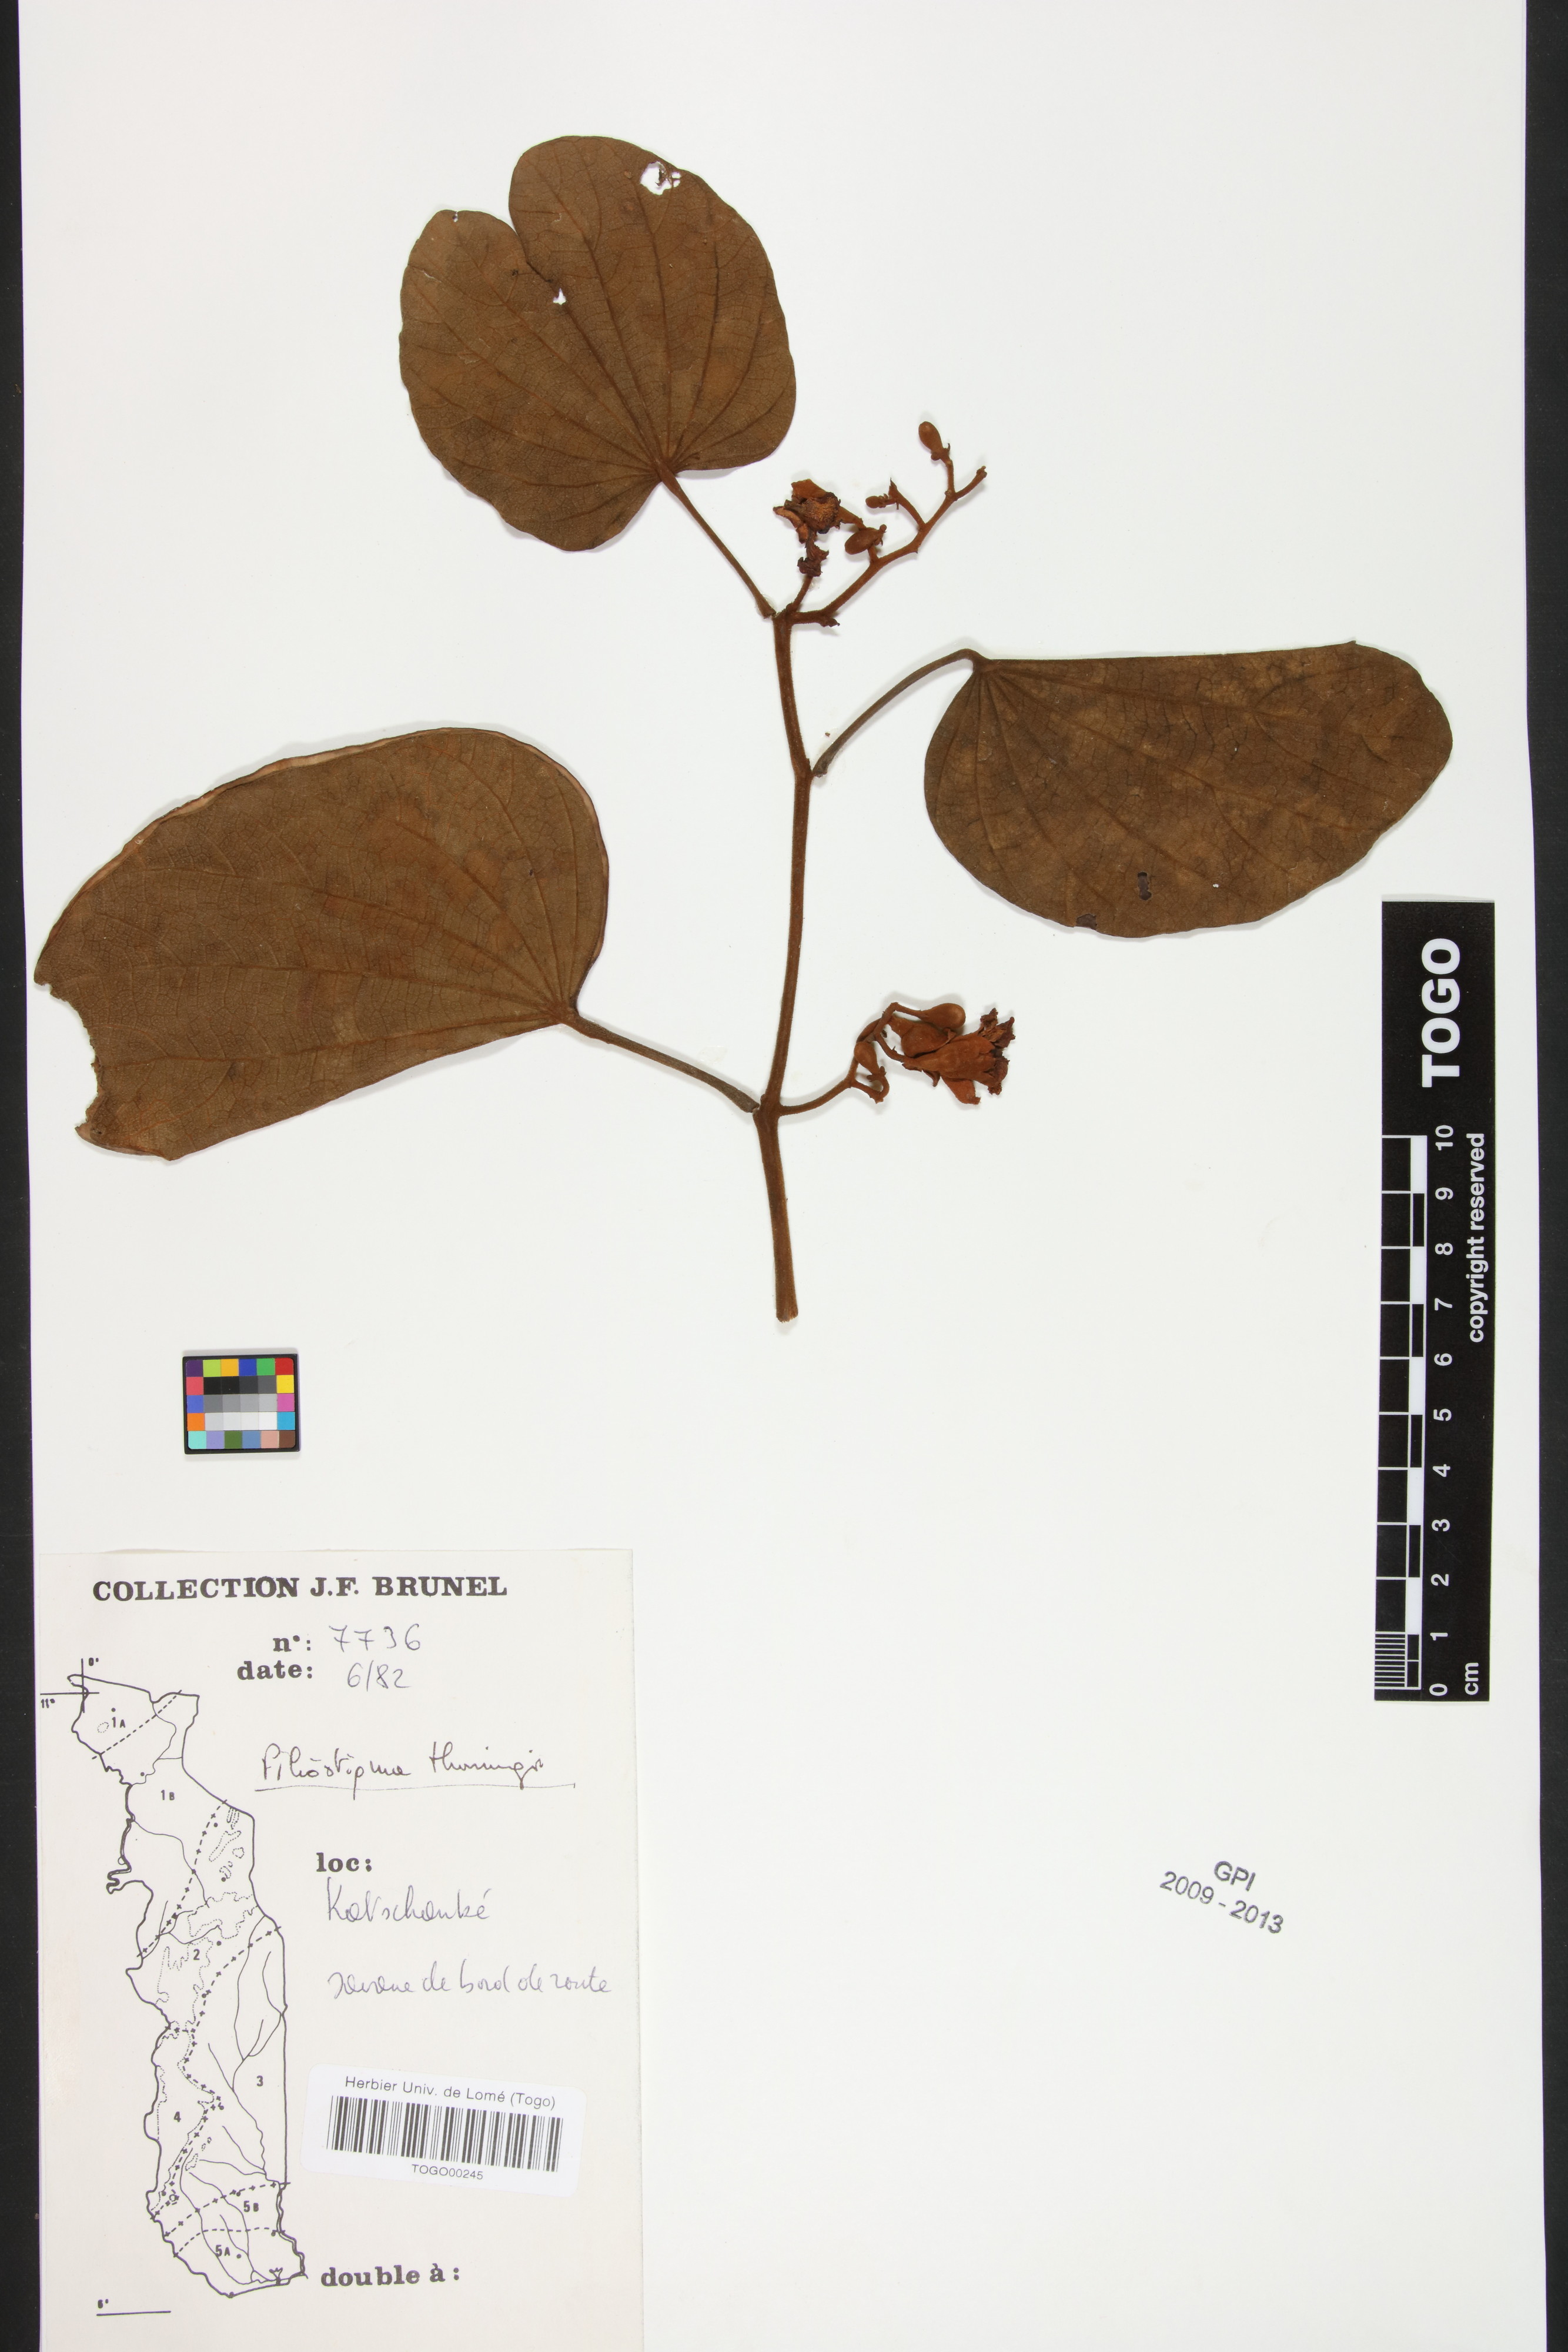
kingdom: Plantae
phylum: Tracheophyta
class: Magnoliopsida
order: Fabales
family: Fabaceae
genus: Piliostigma
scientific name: Piliostigma thonningii
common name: Kao
